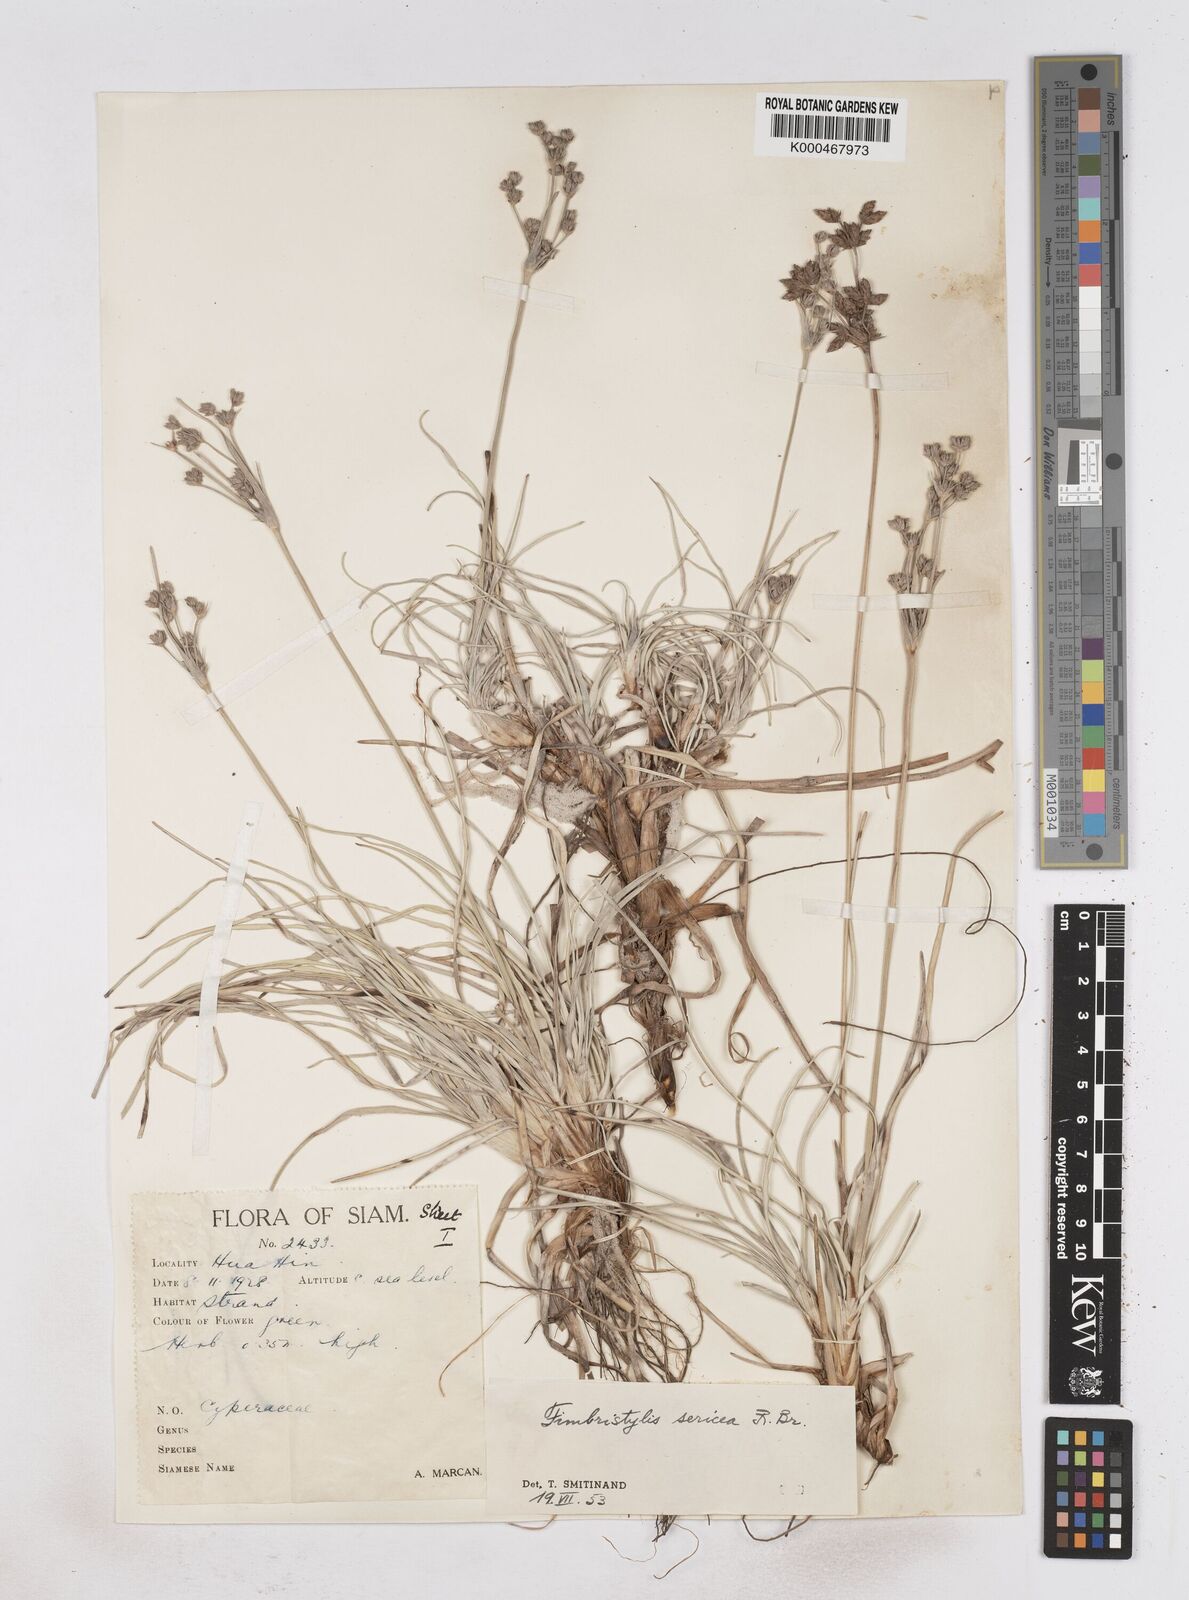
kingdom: Plantae
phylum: Tracheophyta
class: Liliopsida
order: Poales
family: Cyperaceae
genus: Fimbristylis
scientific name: Fimbristylis sericea
